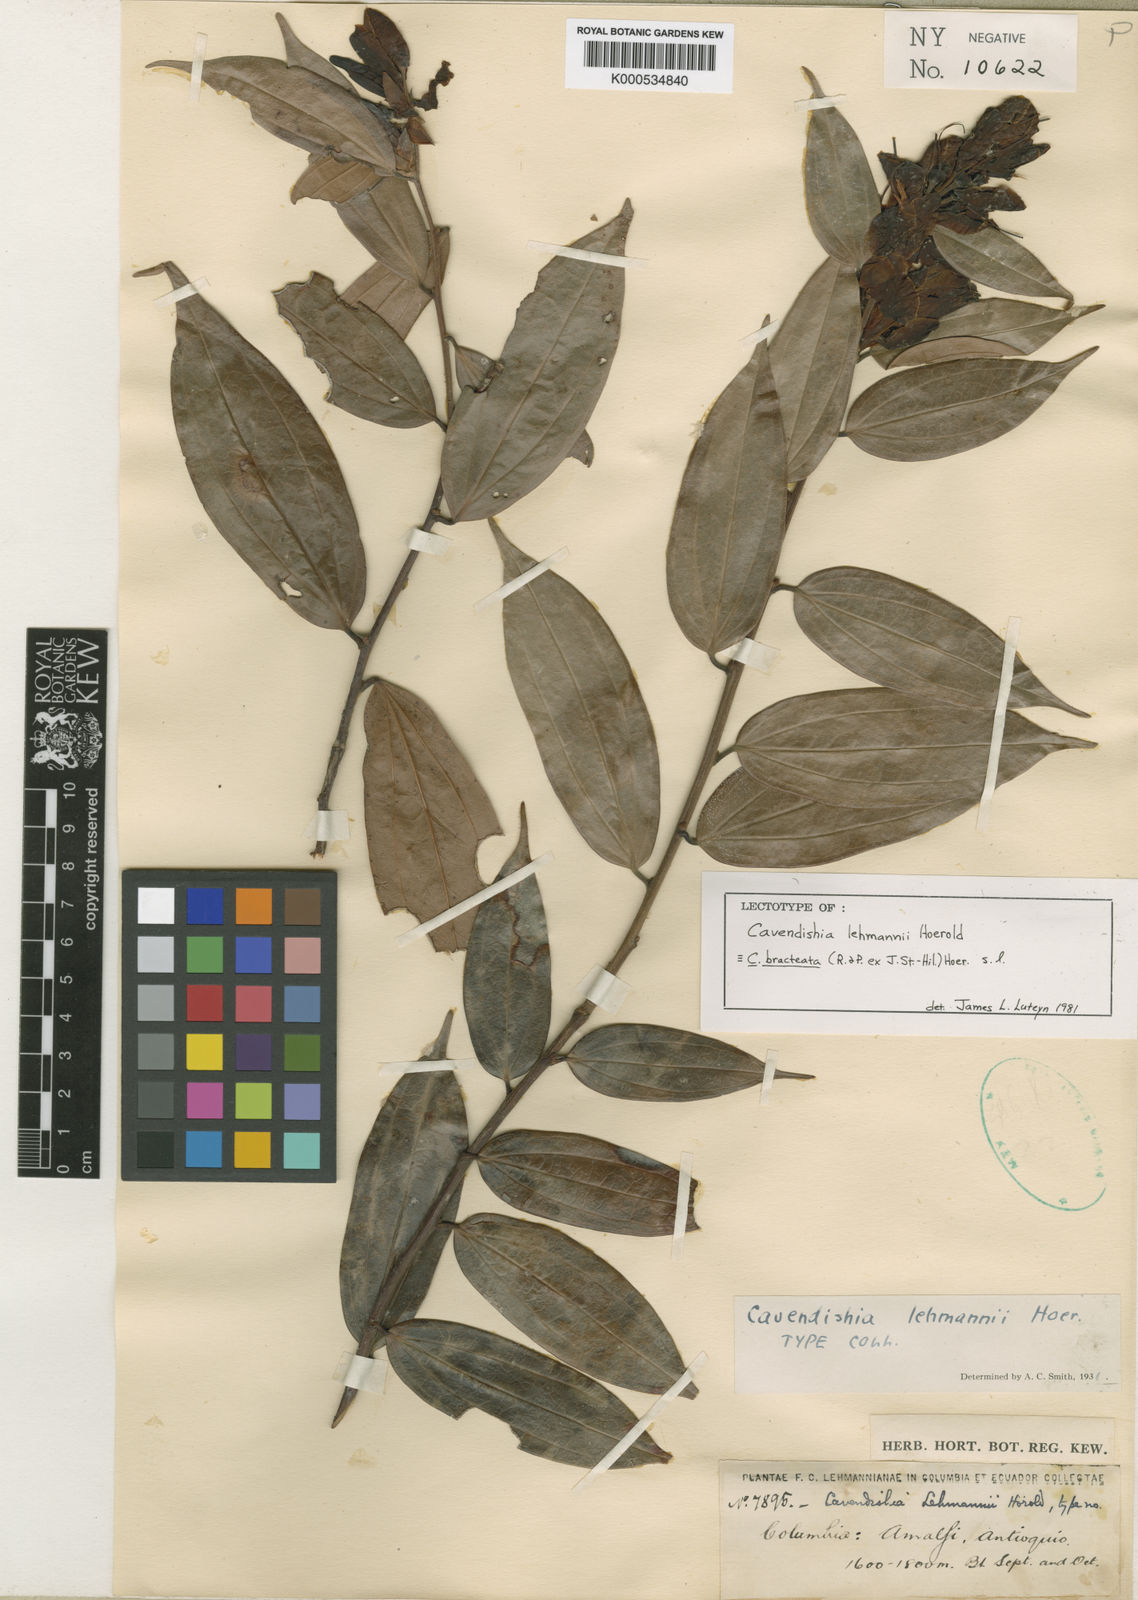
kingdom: Plantae
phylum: Tracheophyta
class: Magnoliopsida
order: Ericales
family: Ericaceae
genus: Cavendishia
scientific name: Cavendishia bracteata
